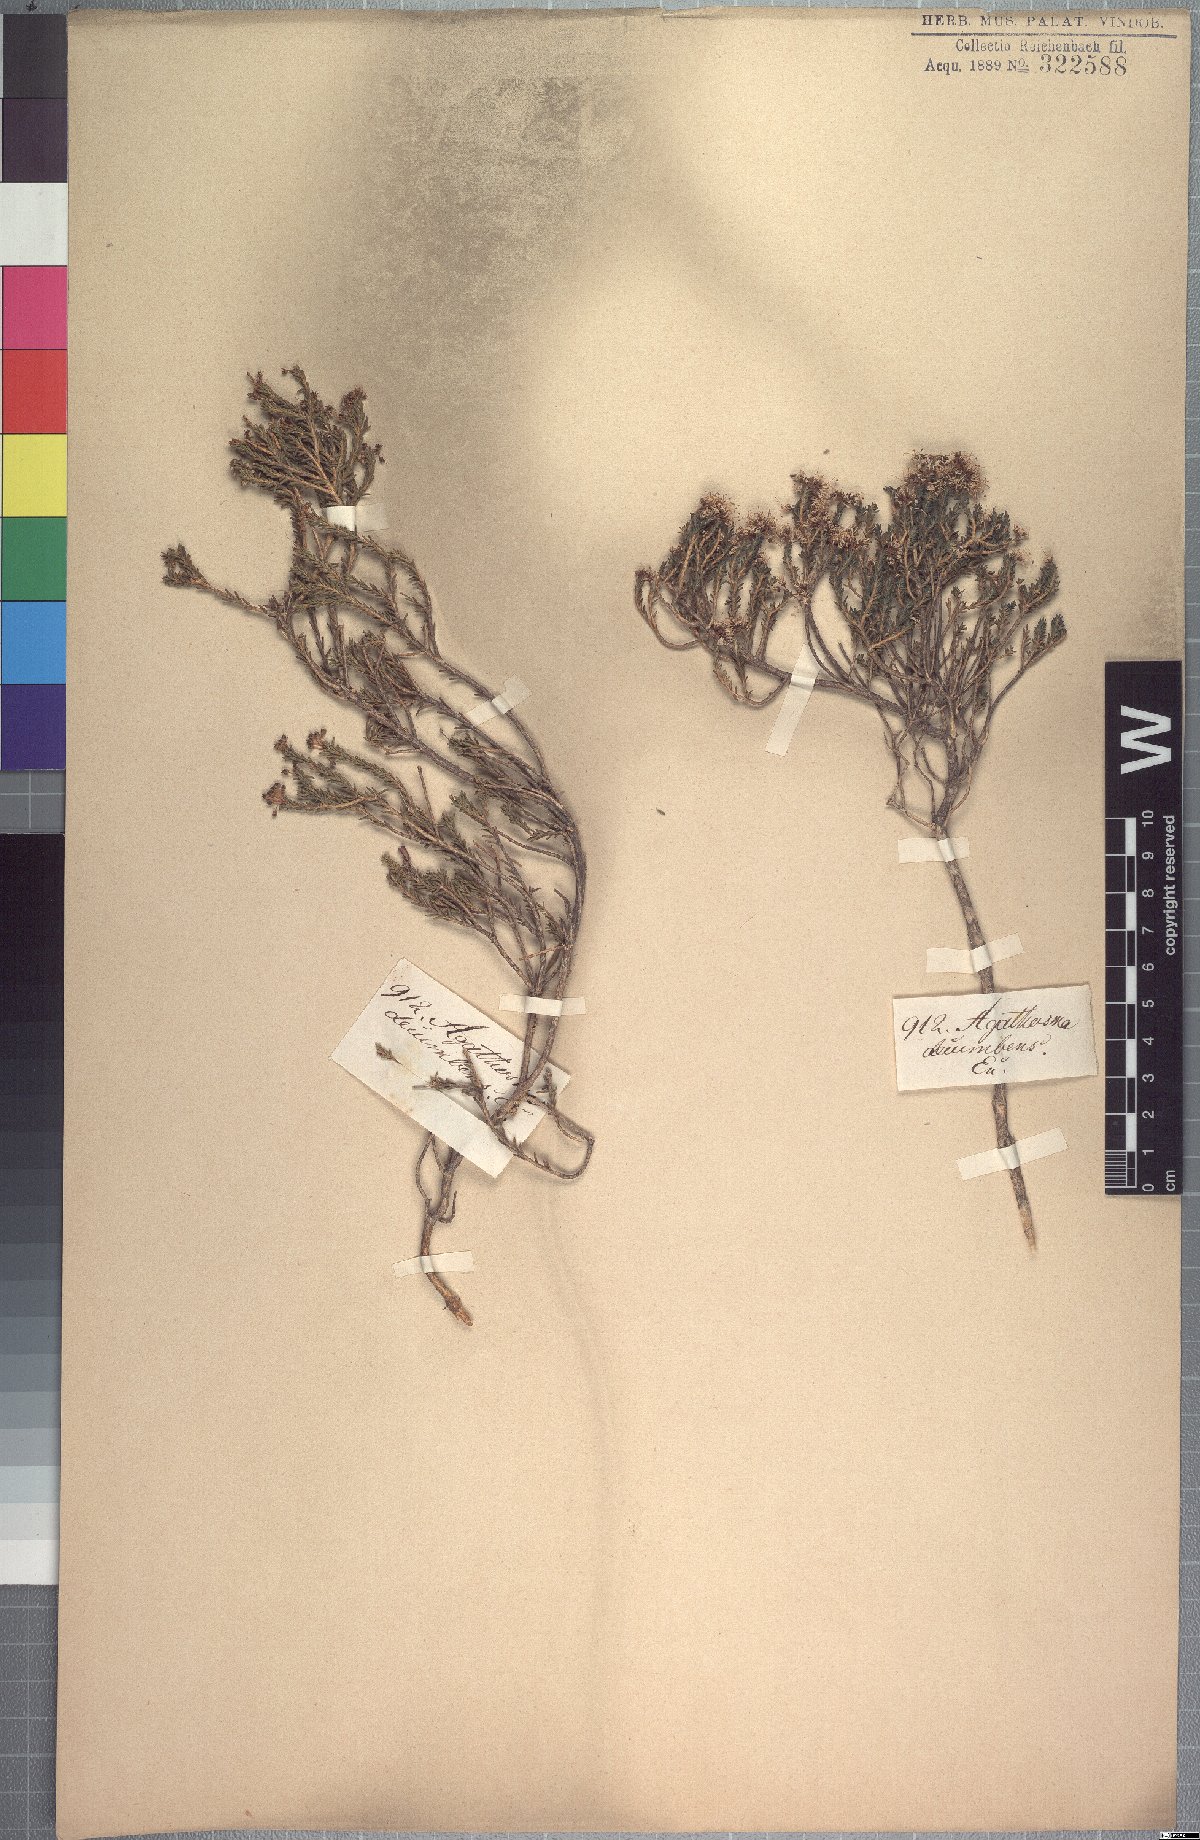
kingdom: Plantae
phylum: Tracheophyta
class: Magnoliopsida
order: Sapindales
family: Rutaceae
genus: Agathosma
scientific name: Agathosma capensis
